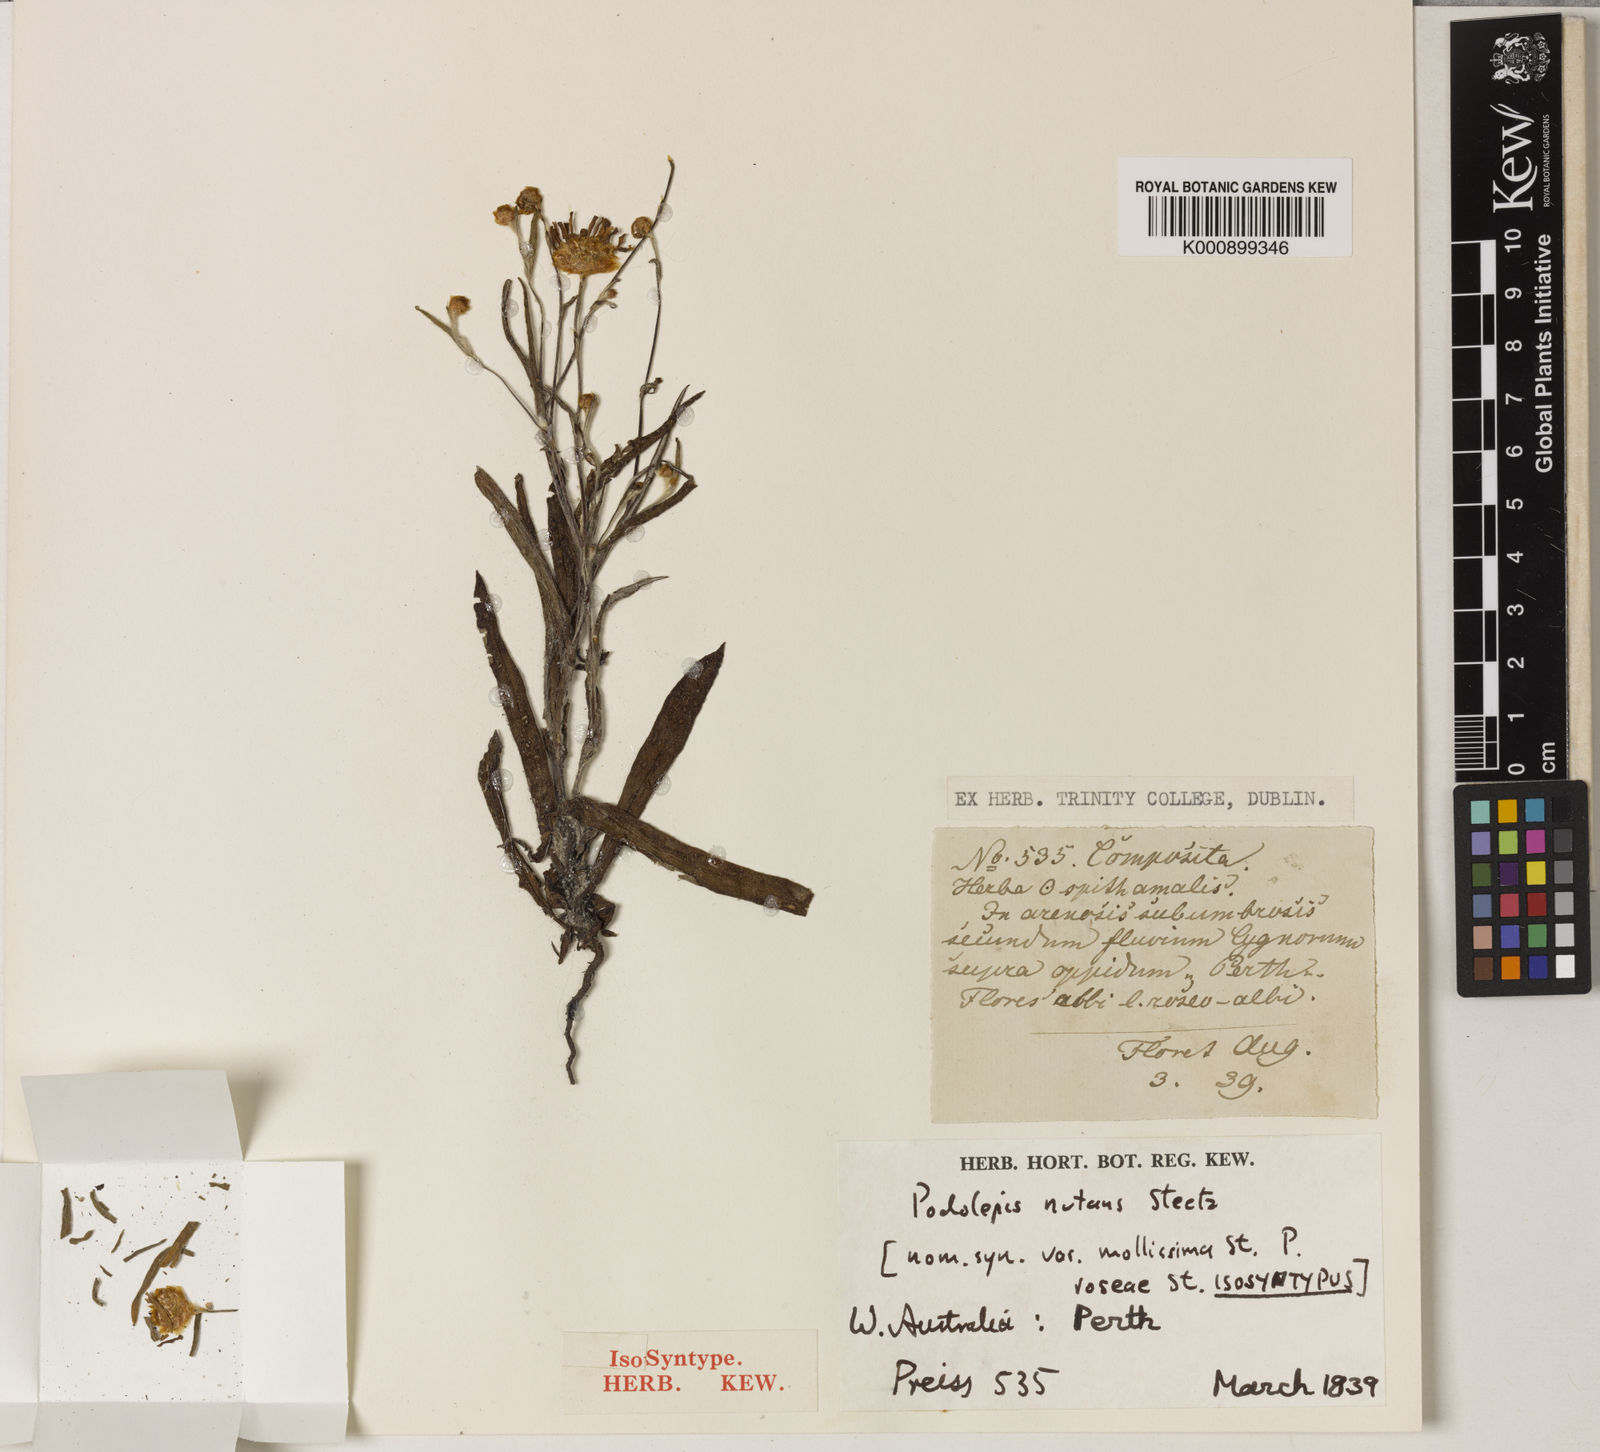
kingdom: Plantae
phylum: Tracheophyta
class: Magnoliopsida
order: Asterales
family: Asteraceae
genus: Podolepis
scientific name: Podolepis nutans
